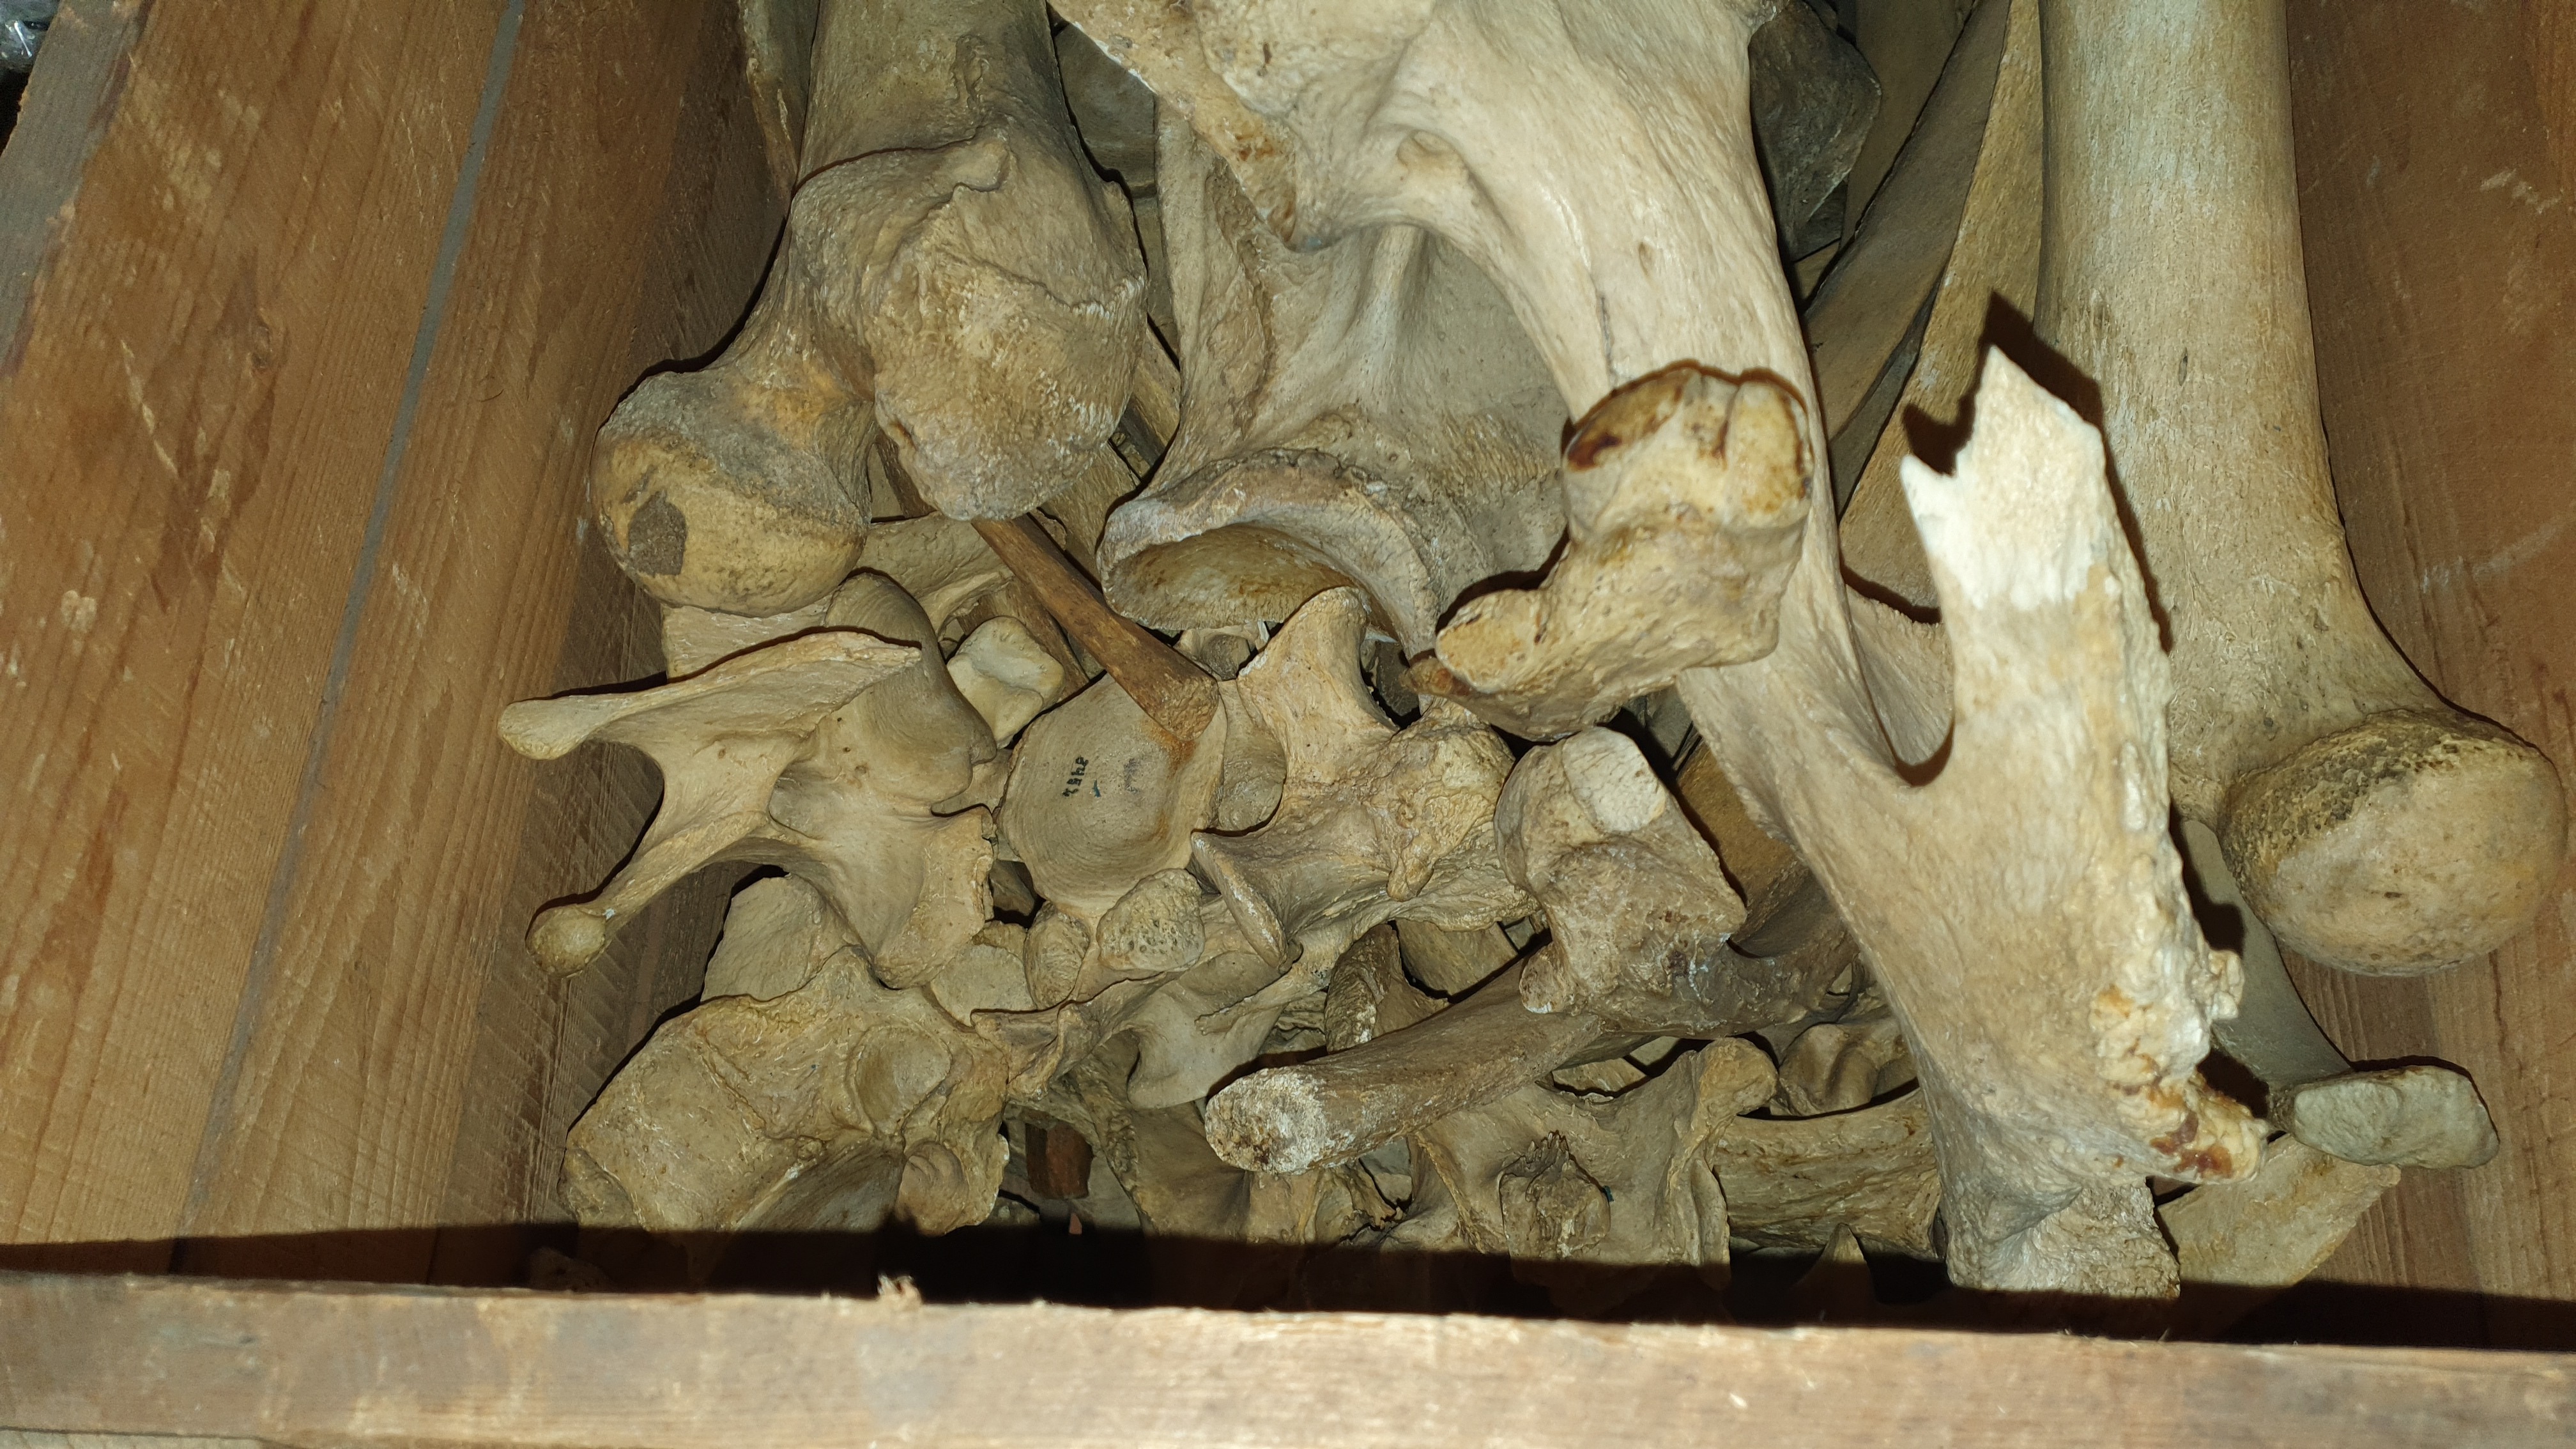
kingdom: Animalia
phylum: Chordata
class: Mammalia
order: Artiodactyla
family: Hippopotamidae
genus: Hippopotamus
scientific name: Hippopotamus amphibius
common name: Common hippopotamus
